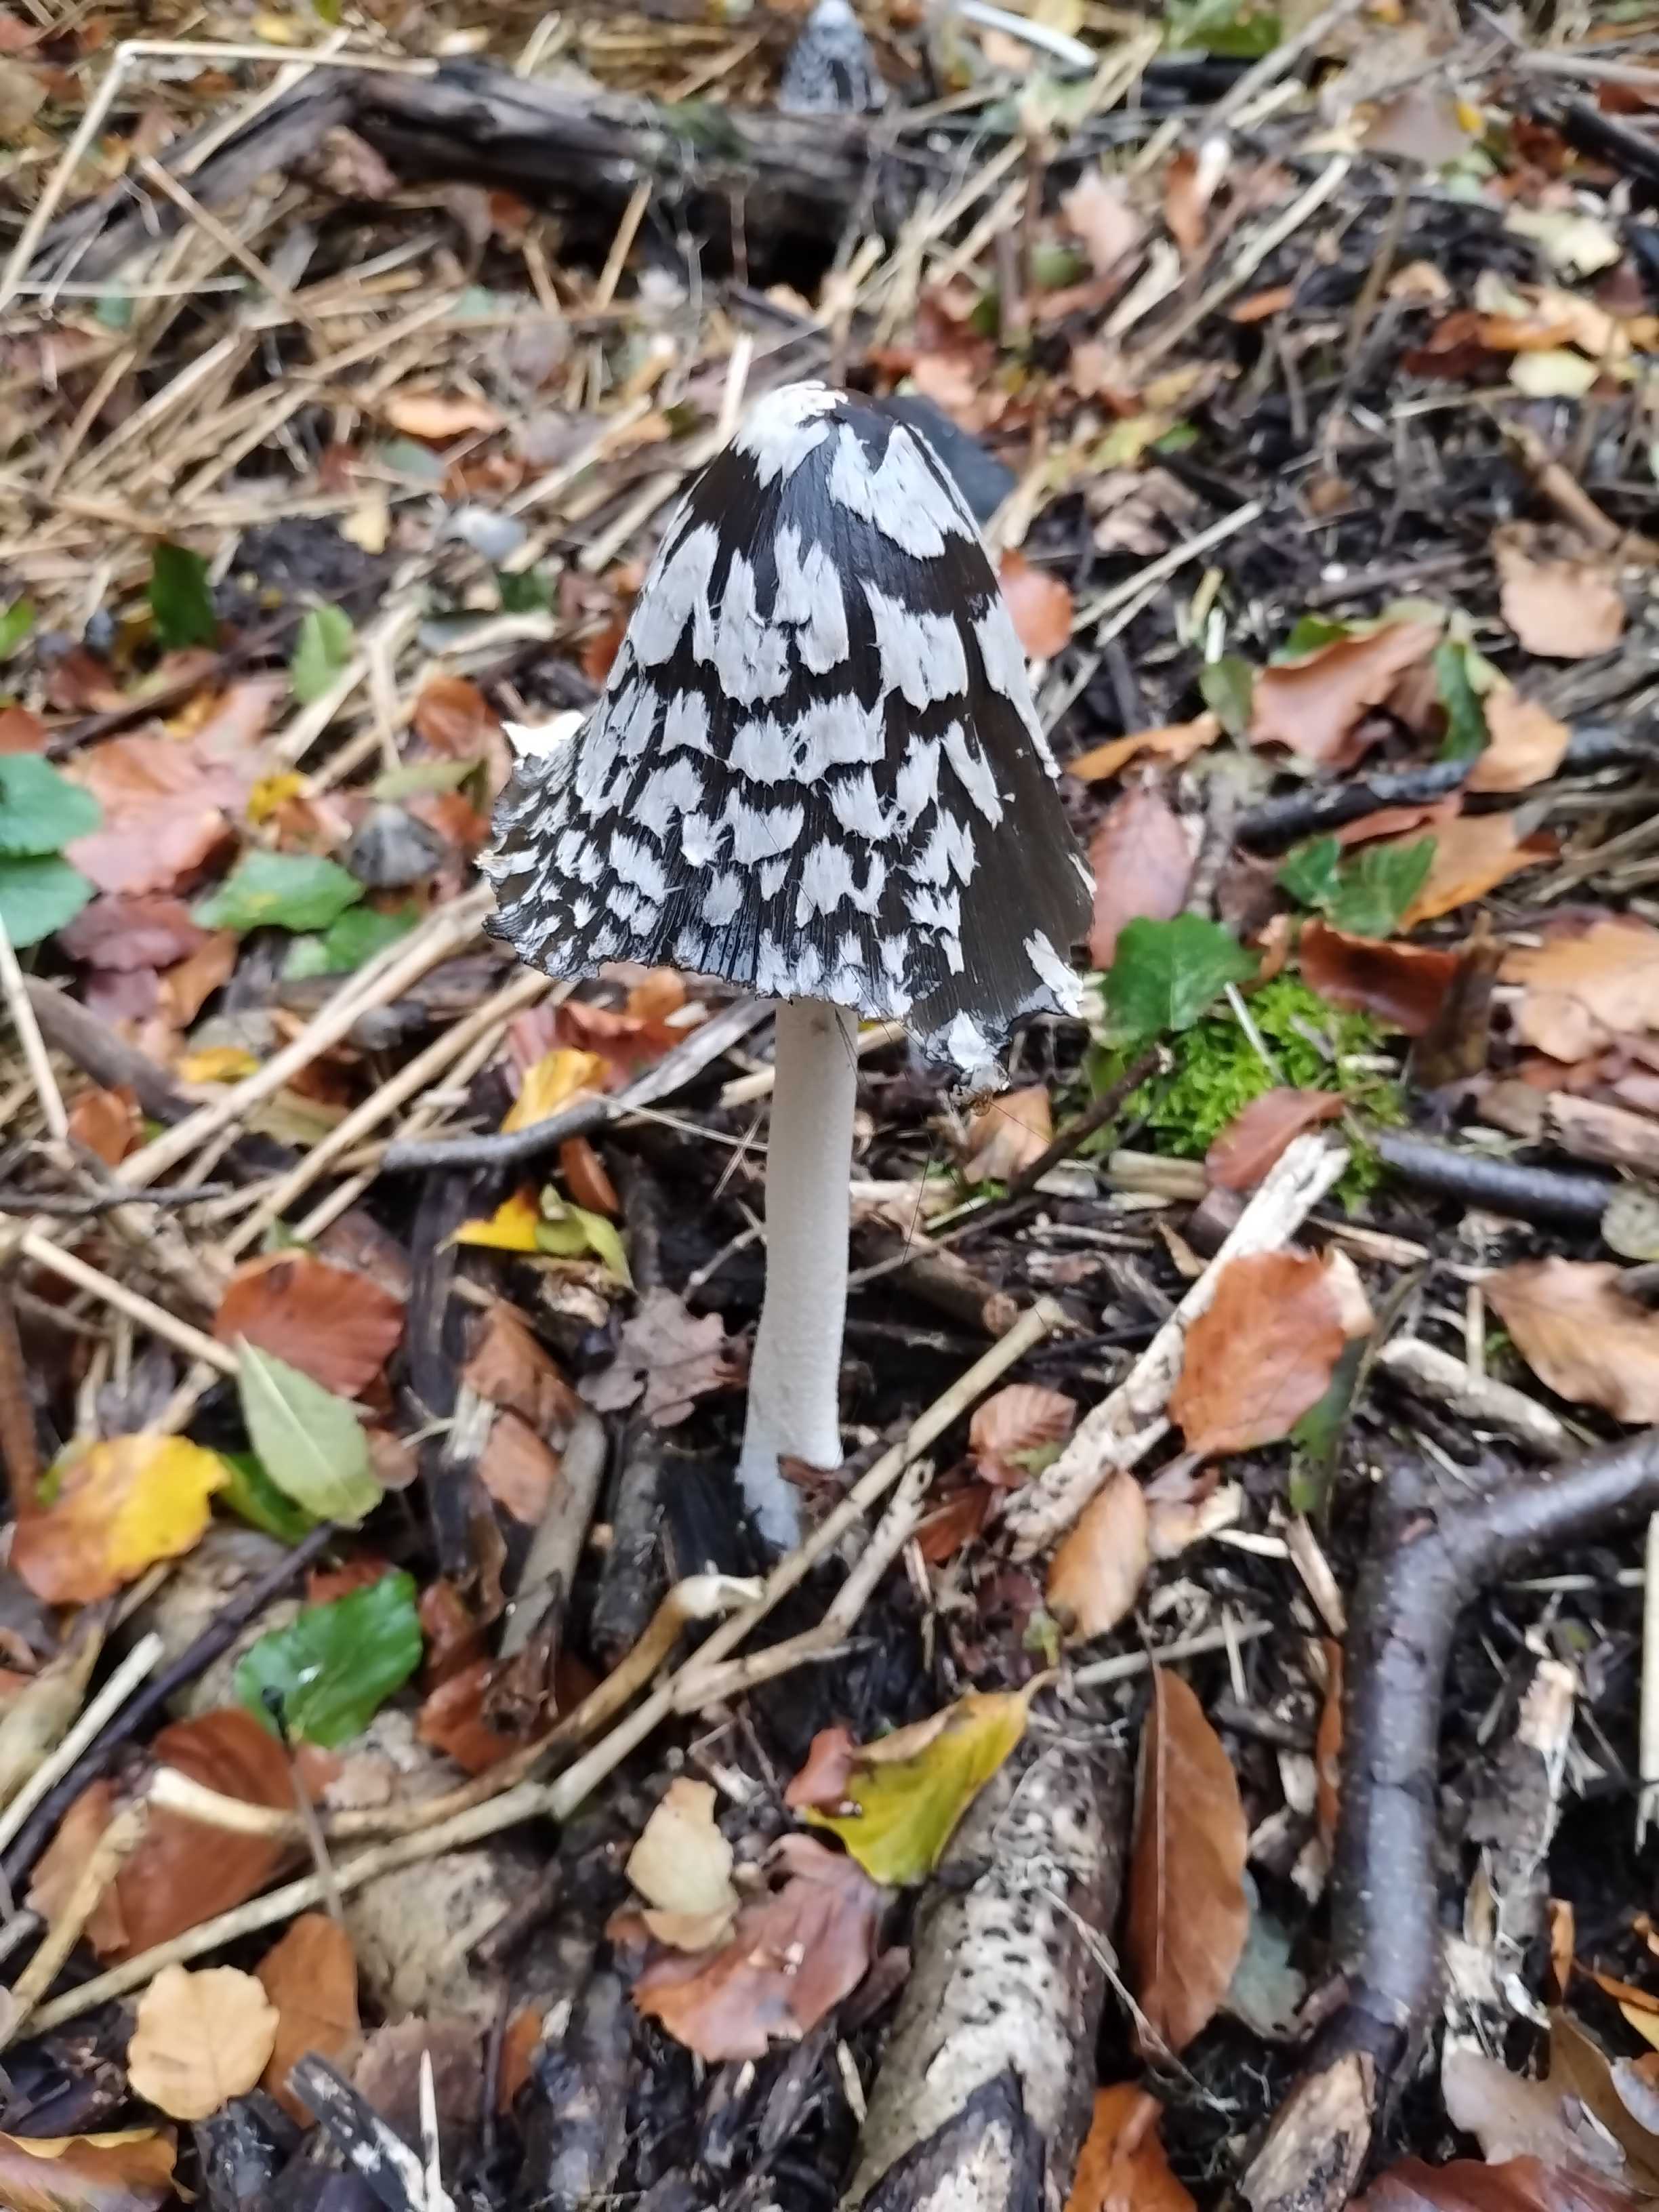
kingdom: Fungi
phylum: Basidiomycota
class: Agaricomycetes
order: Agaricales
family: Psathyrellaceae
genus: Coprinopsis
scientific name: Coprinopsis picacea
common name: skade-blækhat
